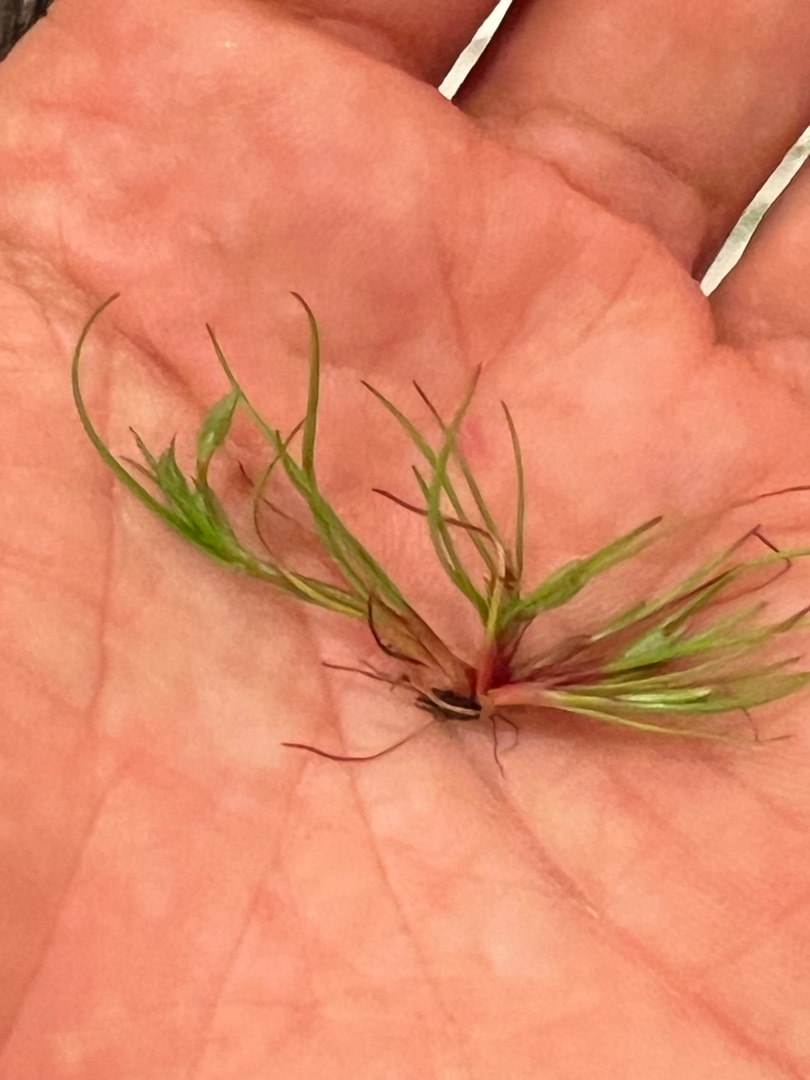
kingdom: Plantae
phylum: Tracheophyta
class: Liliopsida
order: Poales
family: Juncaceae
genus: Juncus
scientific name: Juncus ranarius
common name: Klæg-siv
